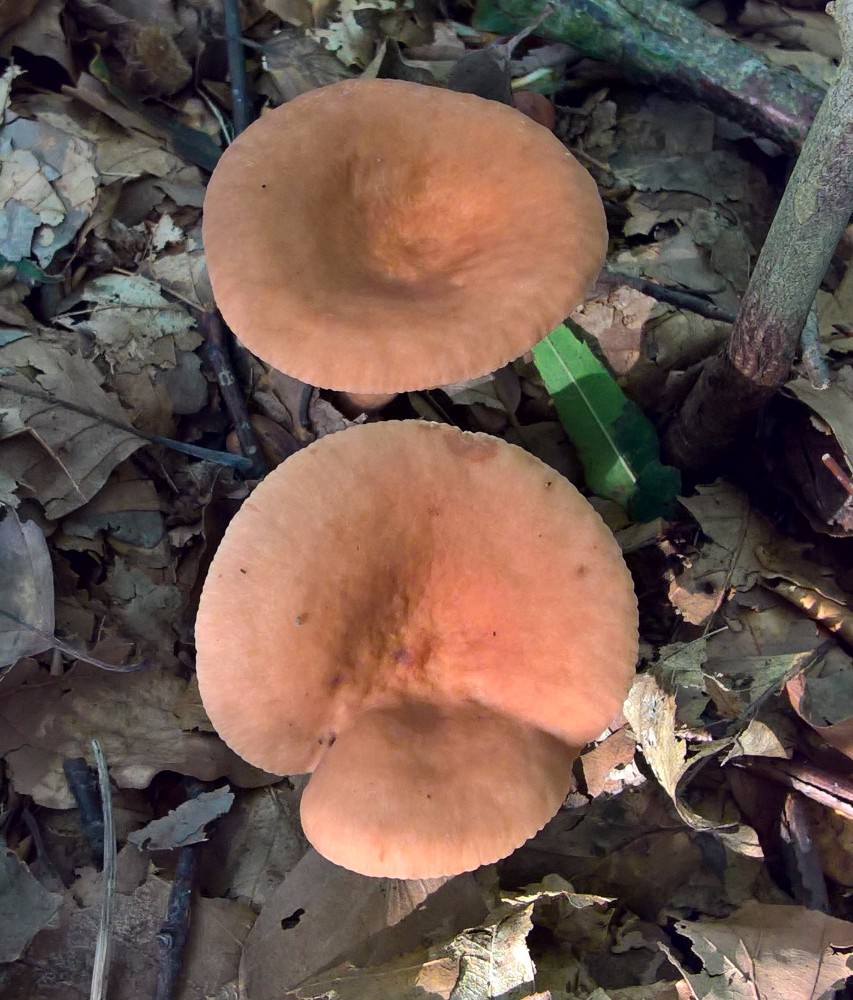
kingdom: Fungi
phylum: Basidiomycota
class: Agaricomycetes
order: Russulales
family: Russulaceae
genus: Lactarius
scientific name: Lactarius subdulcis
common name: sødlig mælkehat
